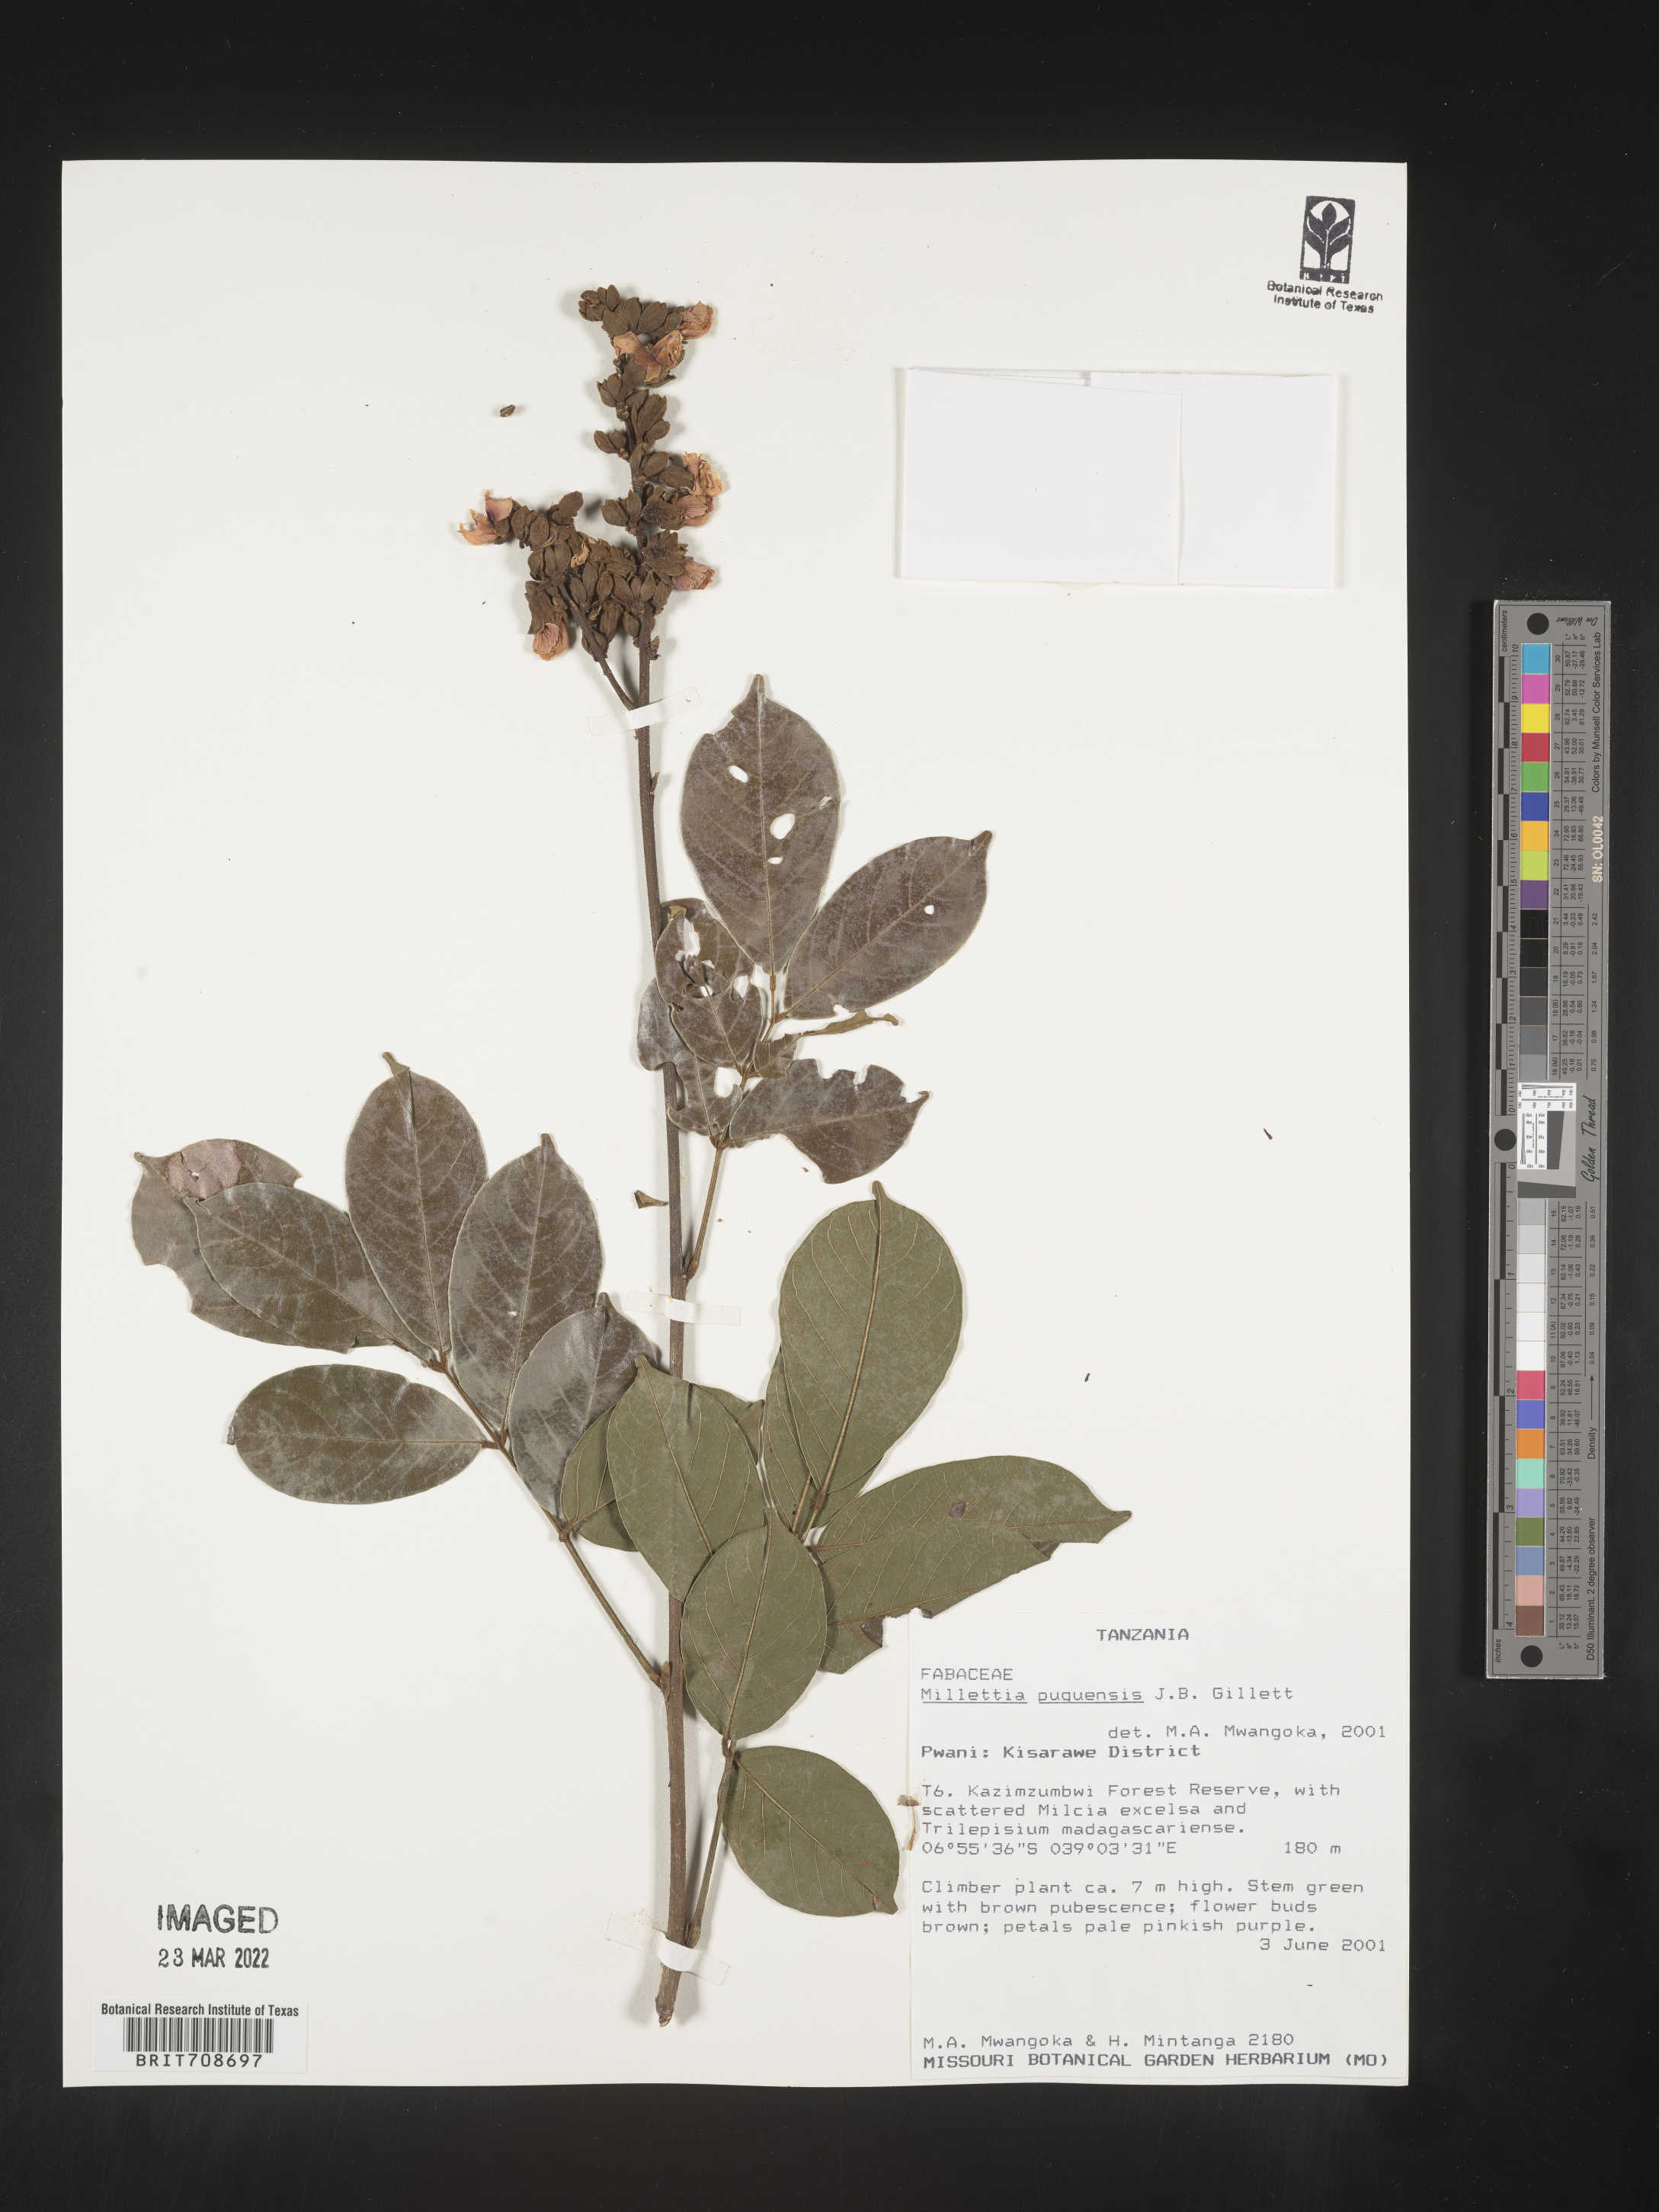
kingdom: Plantae
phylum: Tracheophyta
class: Magnoliopsida
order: Fabales
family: Fabaceae
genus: Millettia
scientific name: Millettia
